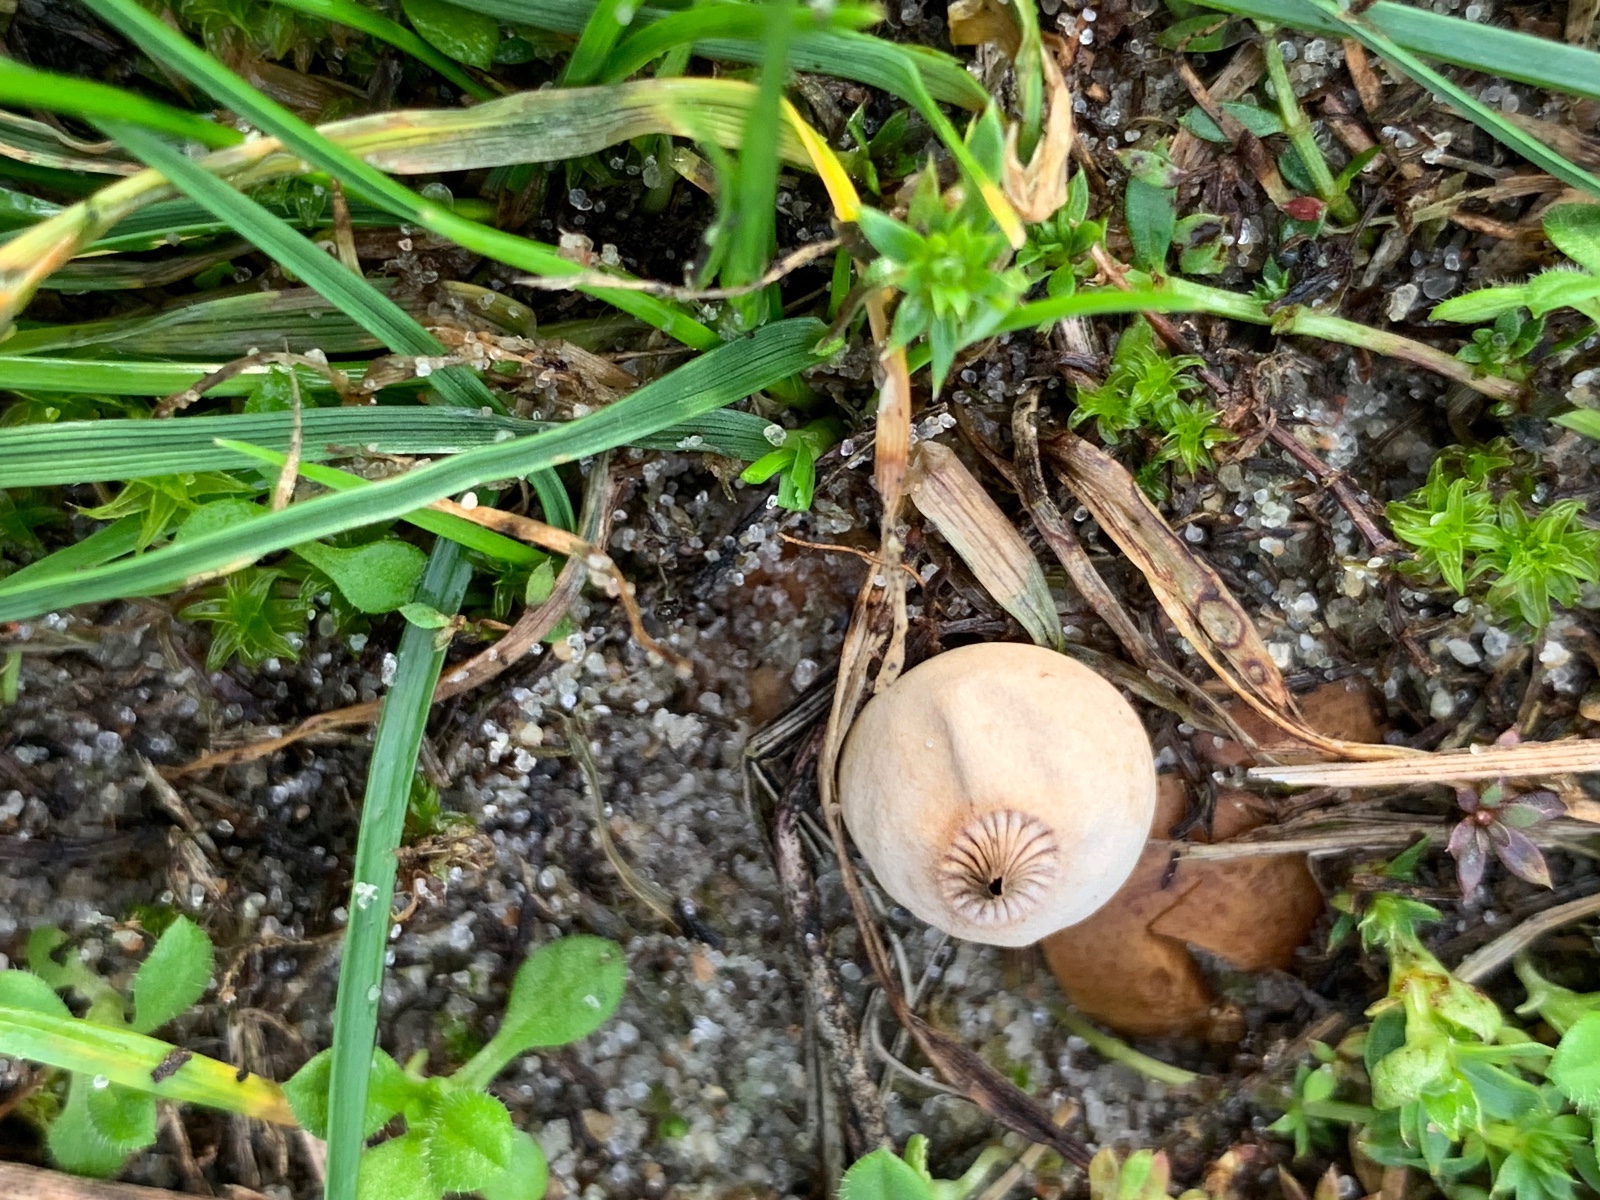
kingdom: Fungi
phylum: Basidiomycota
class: Agaricomycetes
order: Geastrales
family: Geastraceae
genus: Geastrum
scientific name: Geastrum striatum
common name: dværg-stjernebold
